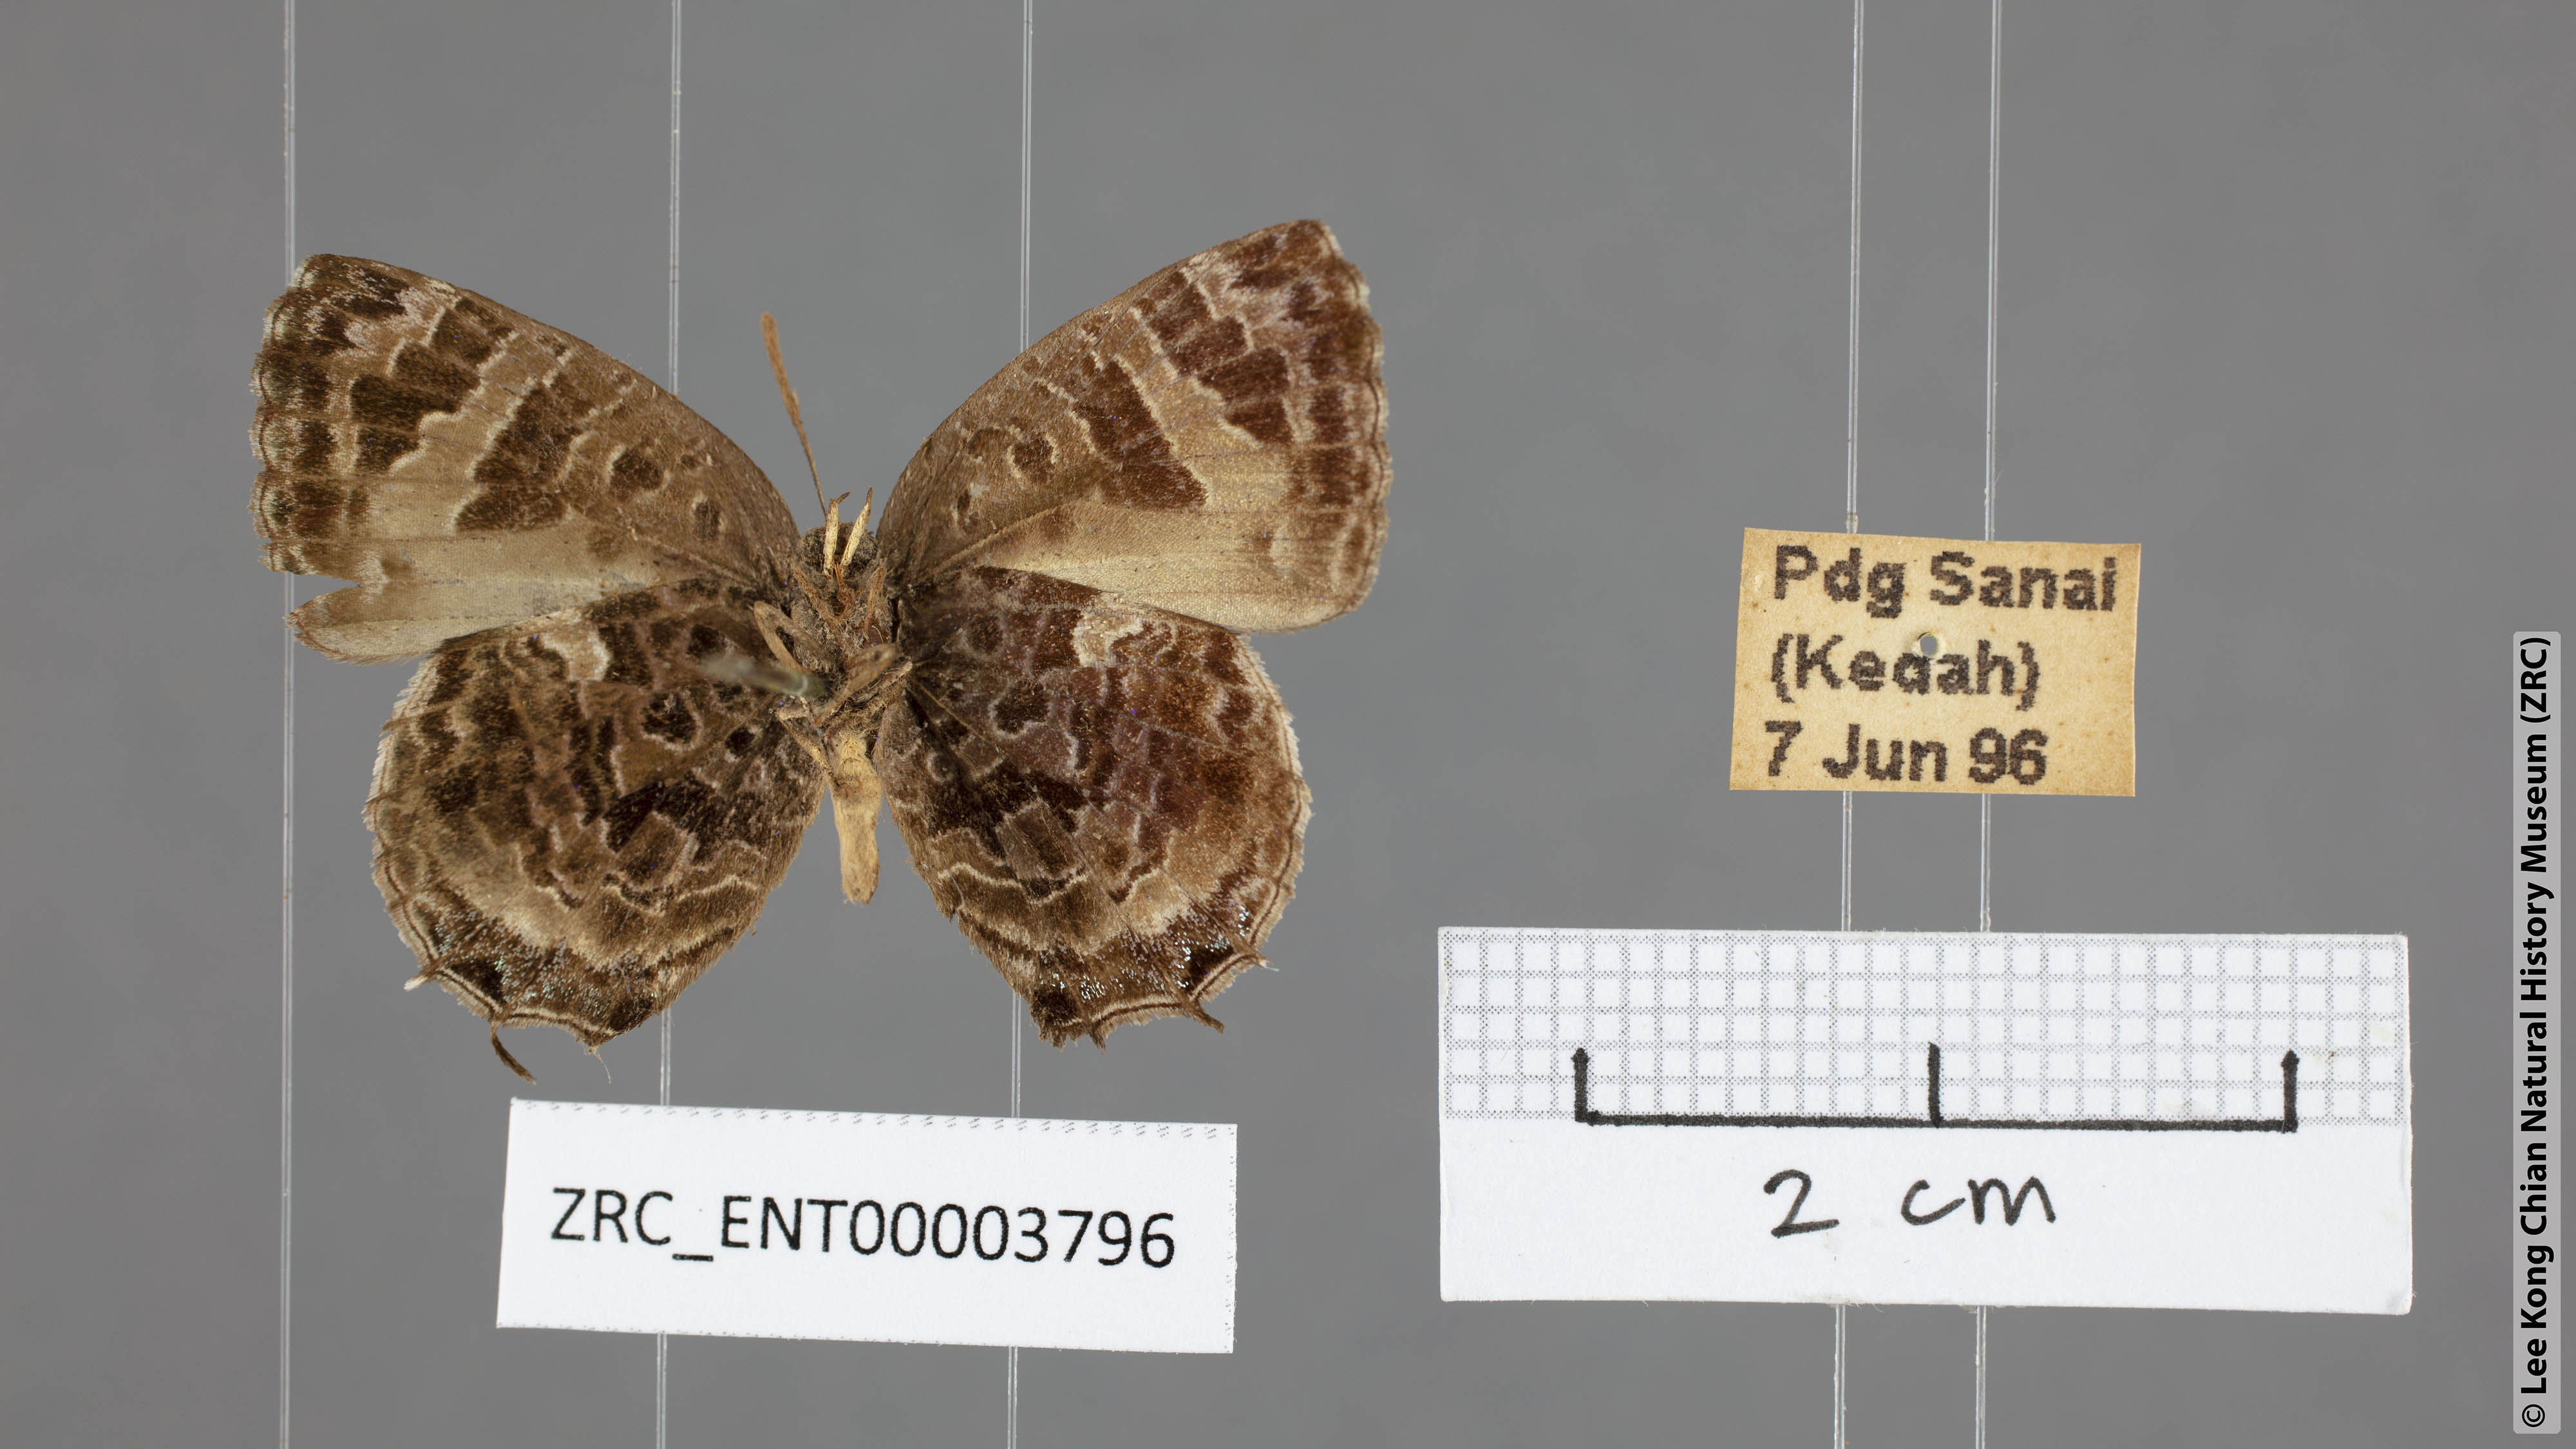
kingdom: Animalia
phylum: Arthropoda
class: Insecta
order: Lepidoptera
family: Lycaenidae
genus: Arhopala
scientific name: Arhopala abseus
